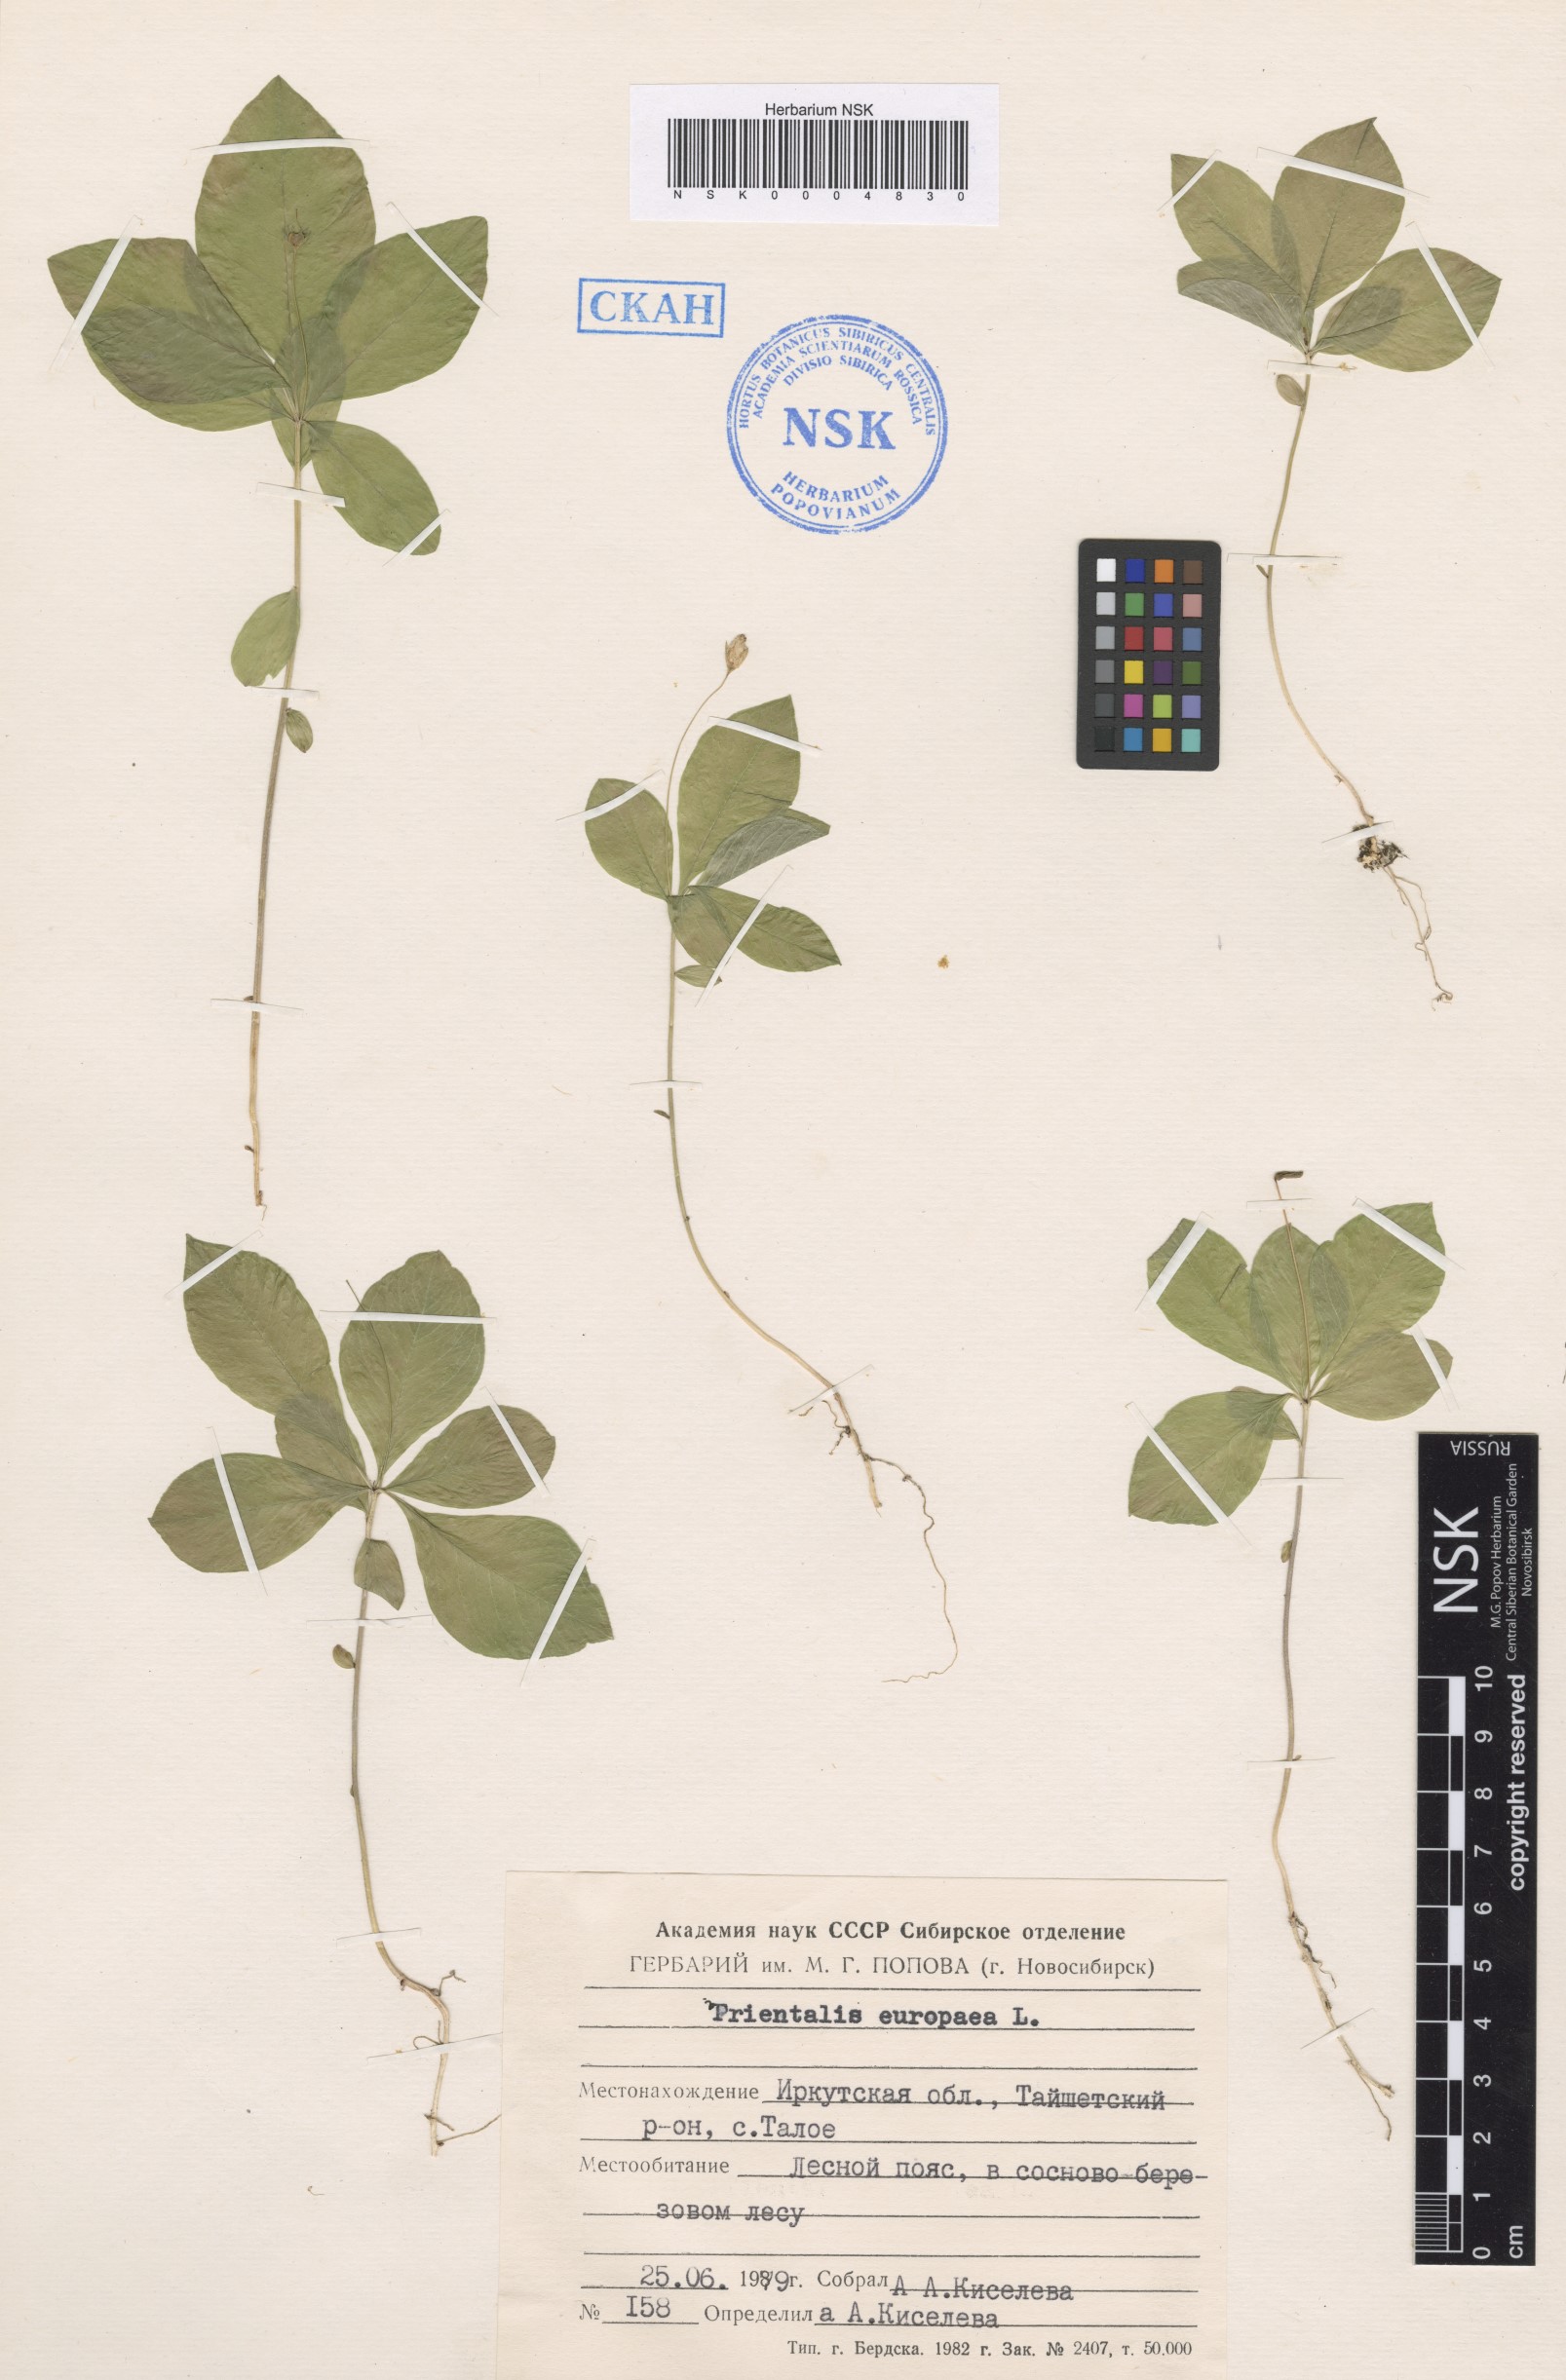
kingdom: Plantae
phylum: Tracheophyta
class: Magnoliopsida
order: Ericales
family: Primulaceae
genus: Lysimachia
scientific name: Lysimachia europaea
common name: Arctic starflower
